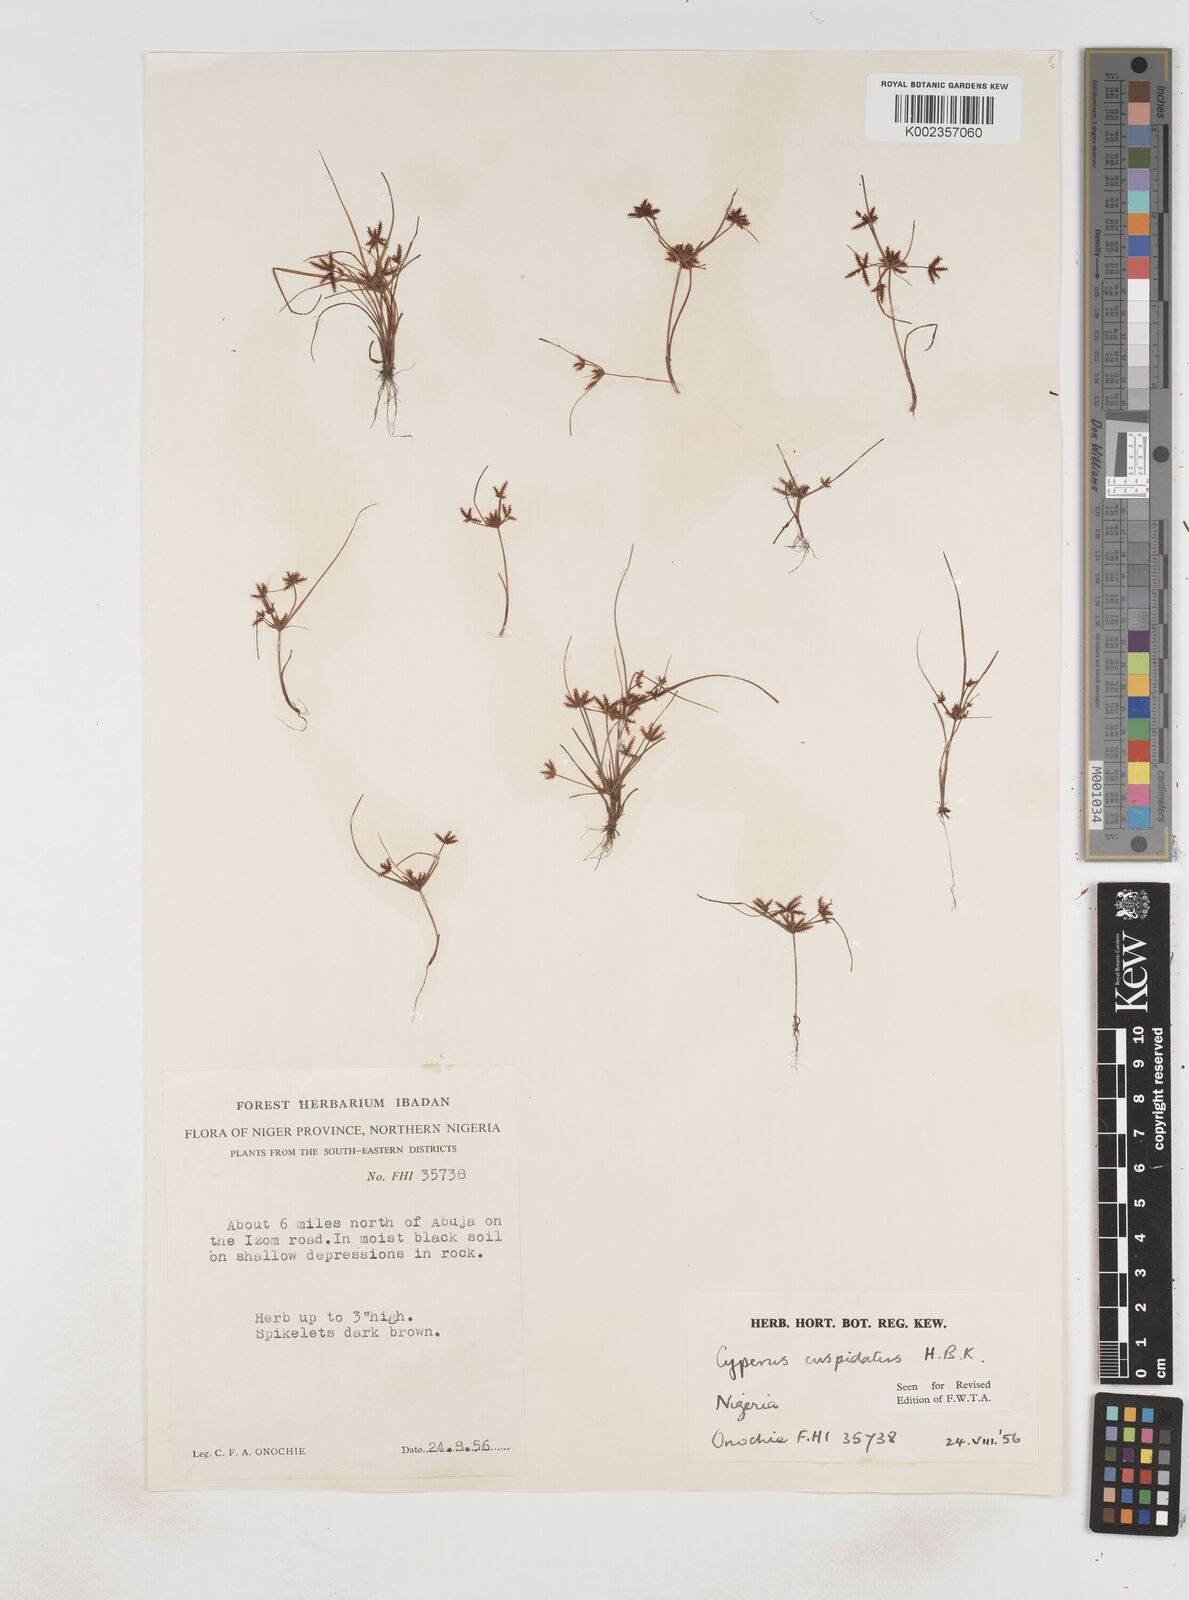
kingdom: Plantae
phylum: Tracheophyta
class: Liliopsida
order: Poales
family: Cyperaceae
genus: Cyperus
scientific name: Cyperus
